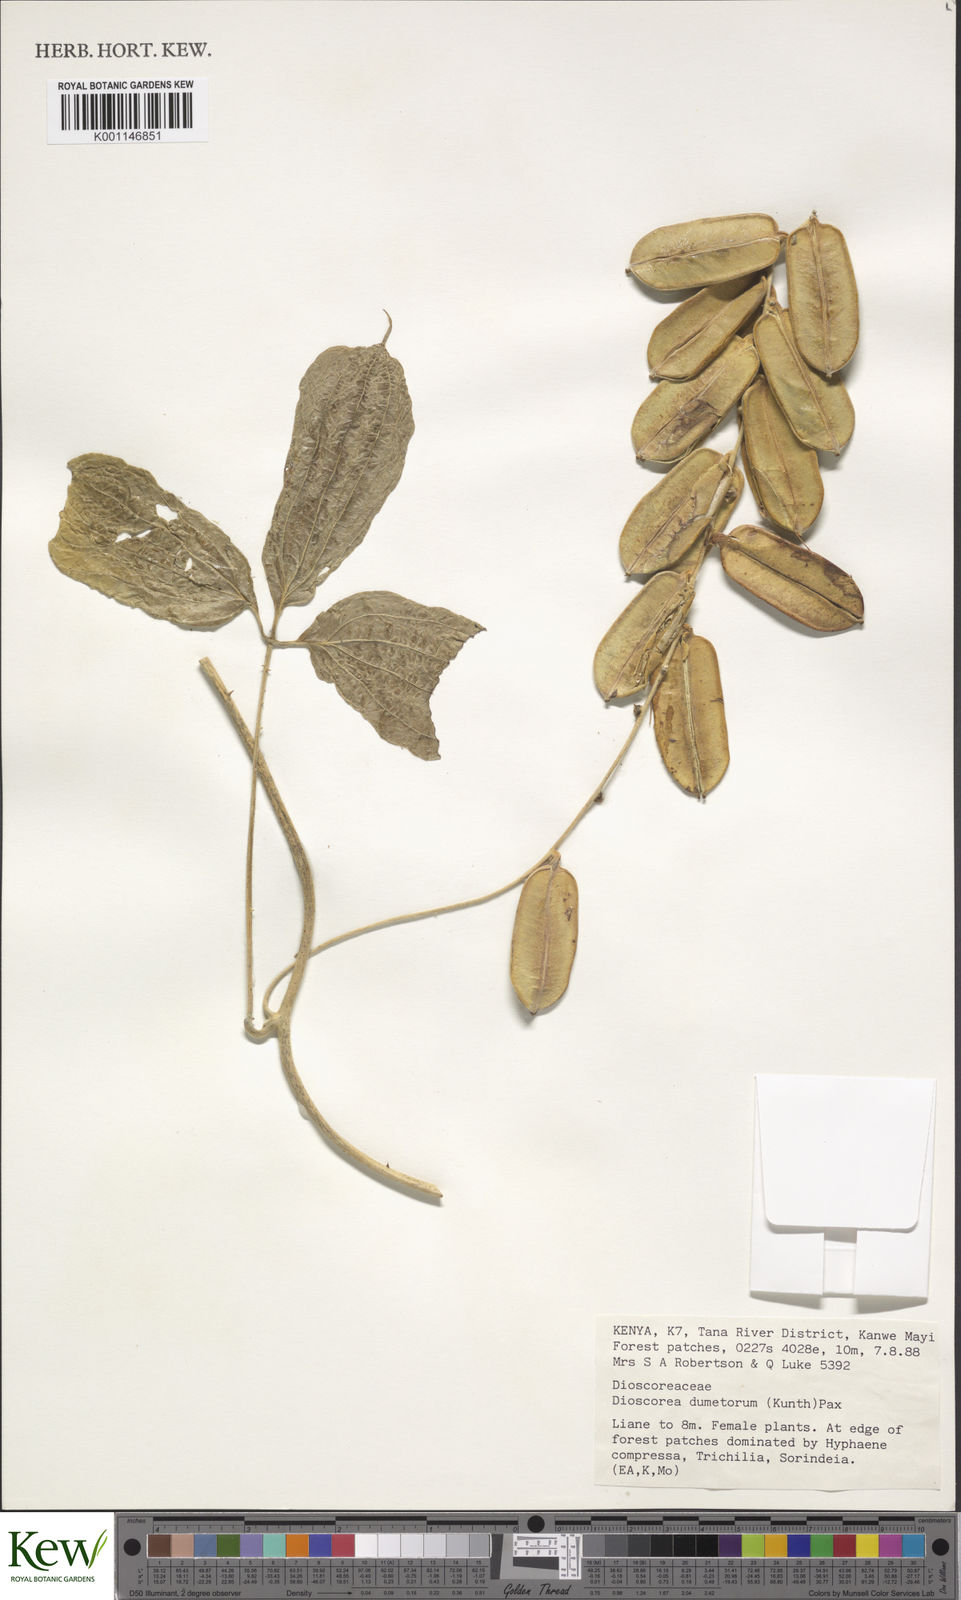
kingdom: Plantae
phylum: Tracheophyta
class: Liliopsida
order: Dioscoreales
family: Dioscoreaceae
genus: Dioscorea
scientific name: Dioscorea dumetorum
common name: African bitter yam
